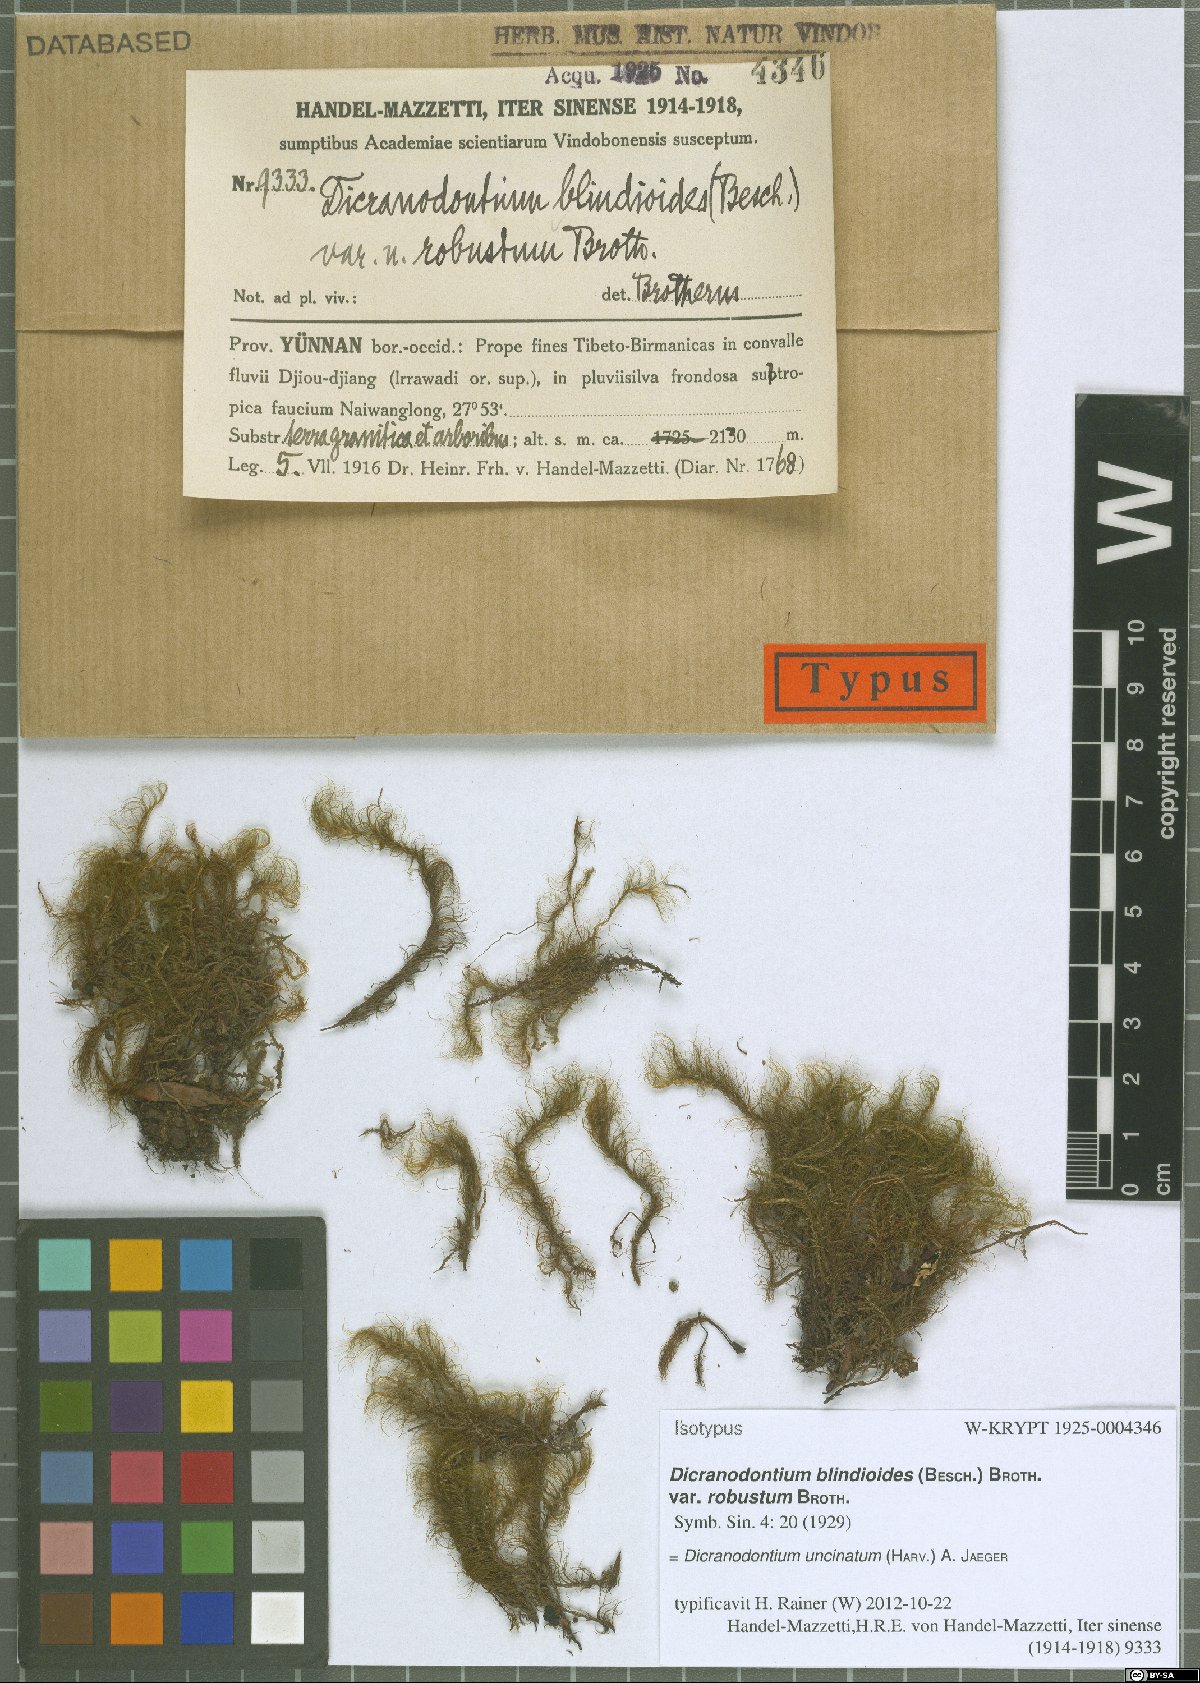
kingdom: Plantae
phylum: Bryophyta
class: Bryopsida
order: Dicranales
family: Leucobryaceae
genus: Dicranodontium
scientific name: Dicranodontium uncinatum
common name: Curve-leaved bow-moss
